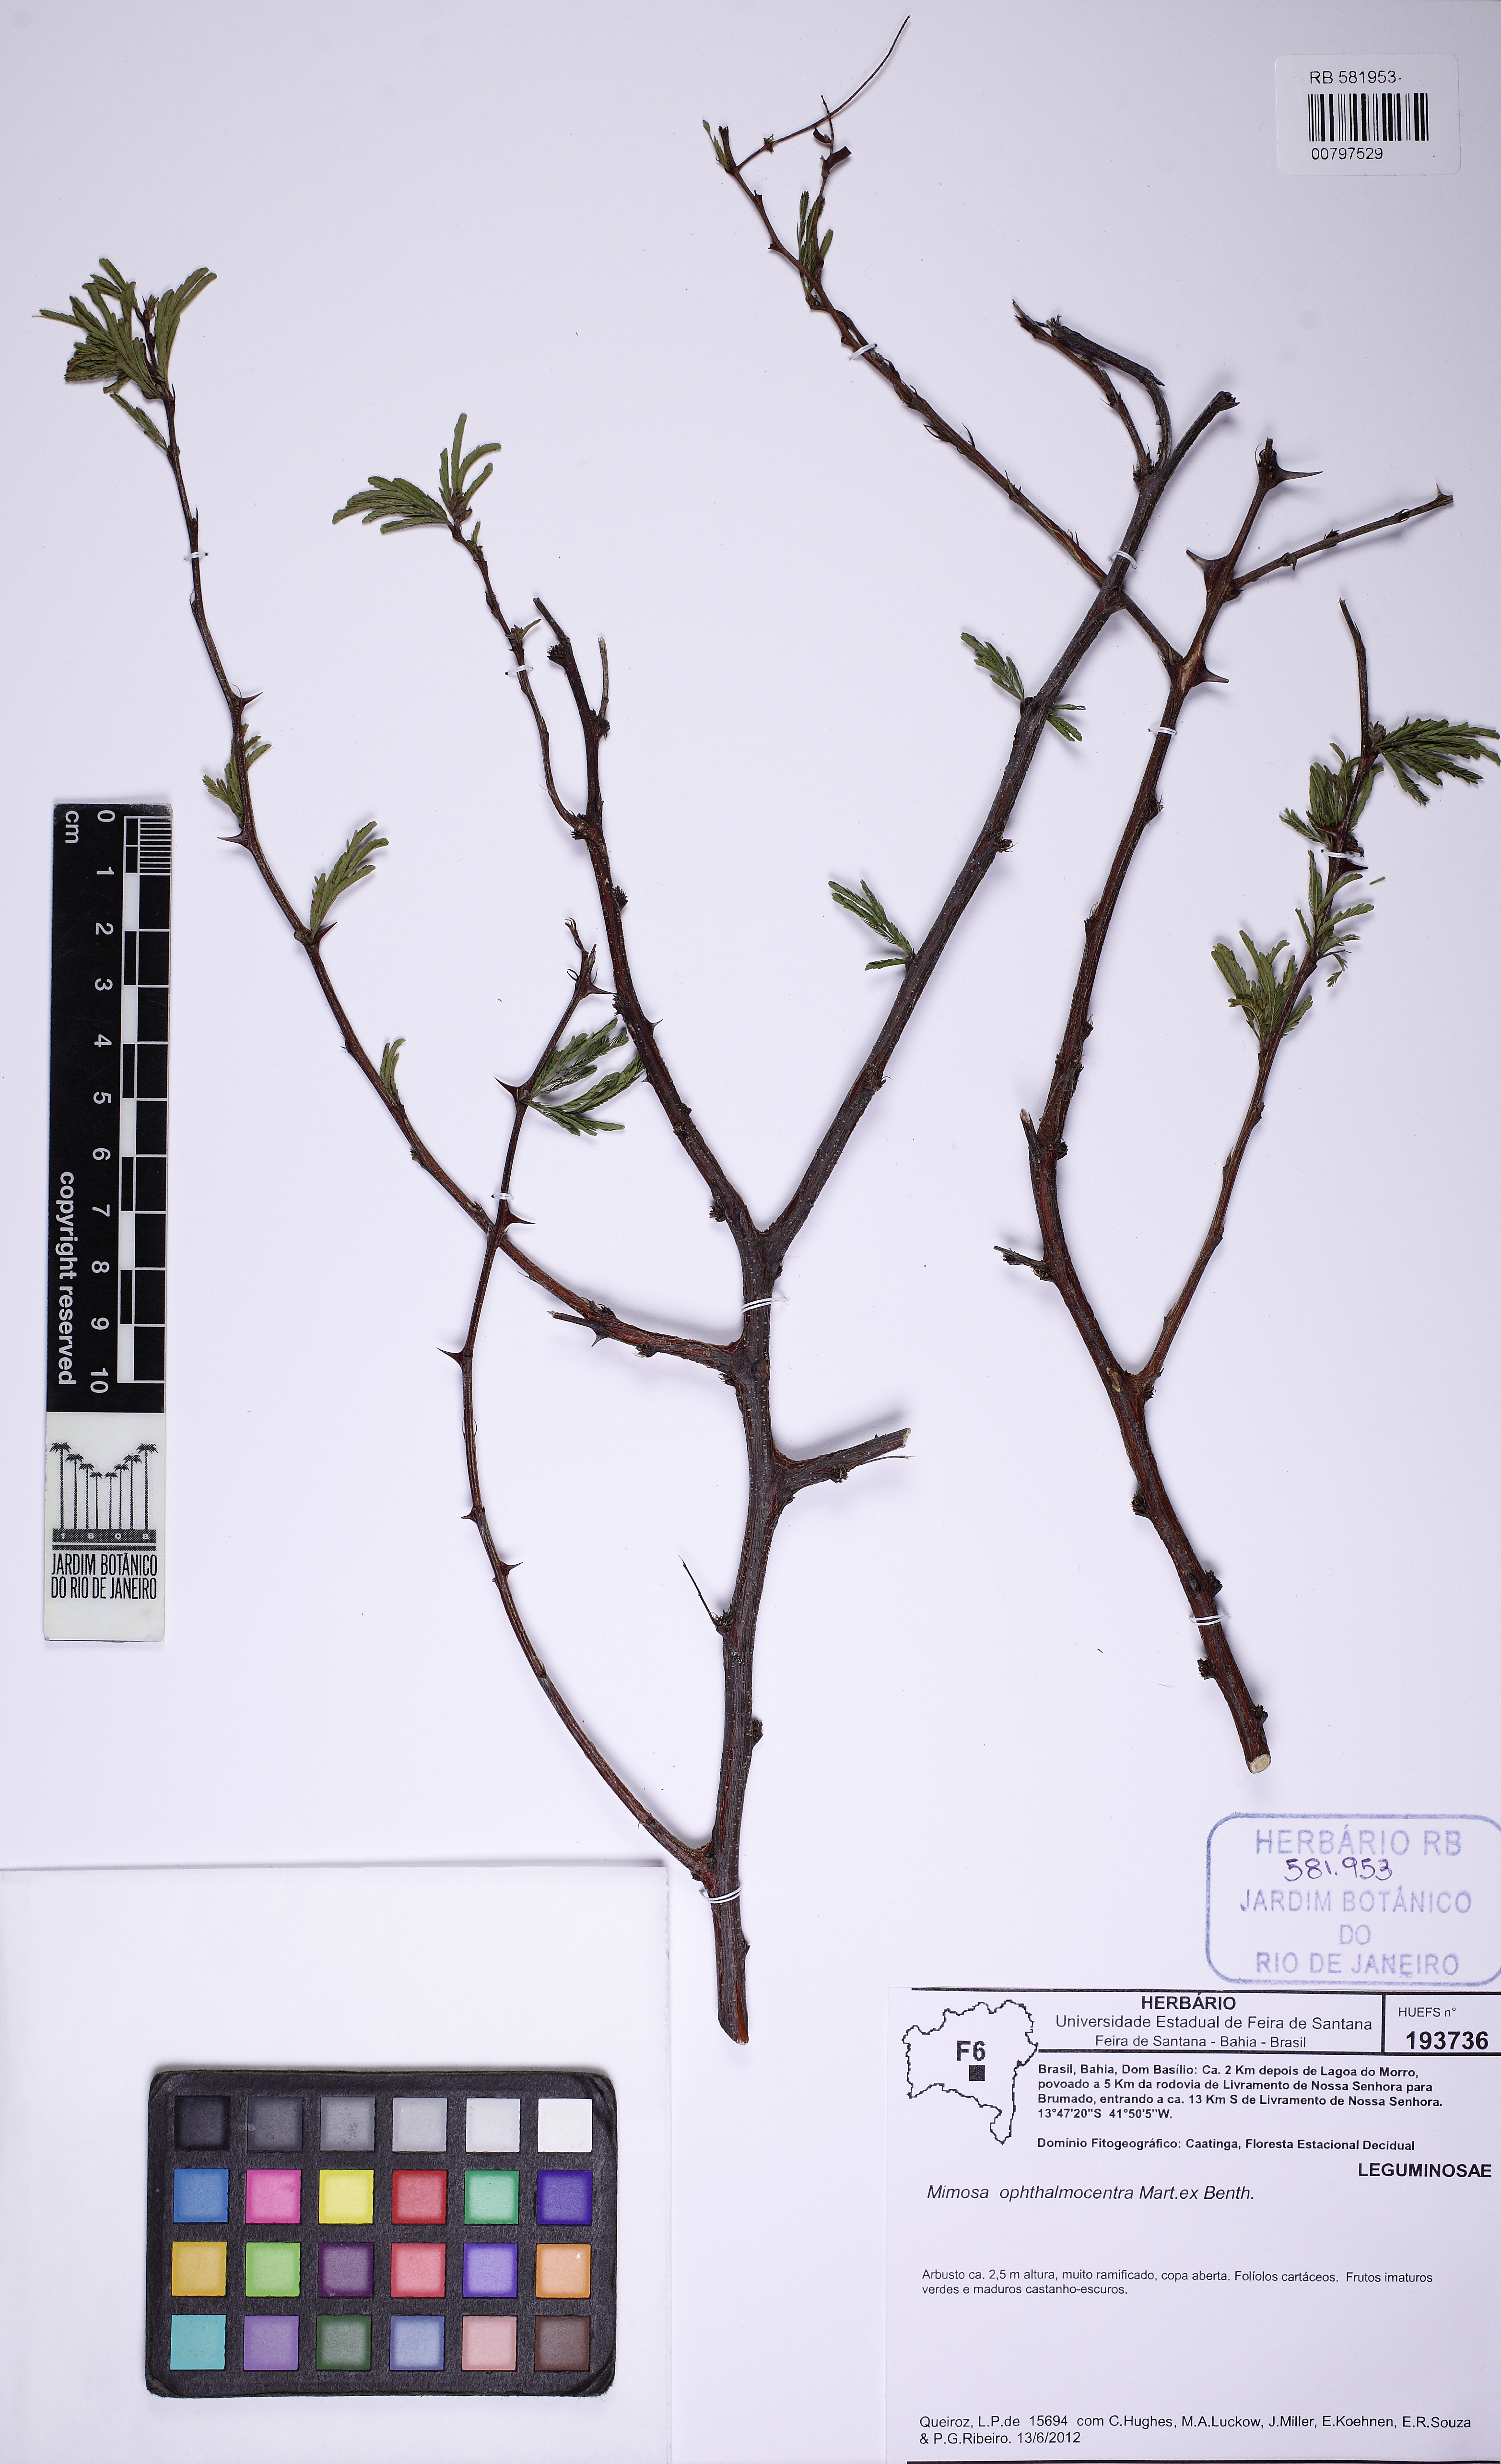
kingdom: Plantae
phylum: Tracheophyta
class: Magnoliopsida
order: Fabales
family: Fabaceae
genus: Mimosa
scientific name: Mimosa ophthalmocentra
